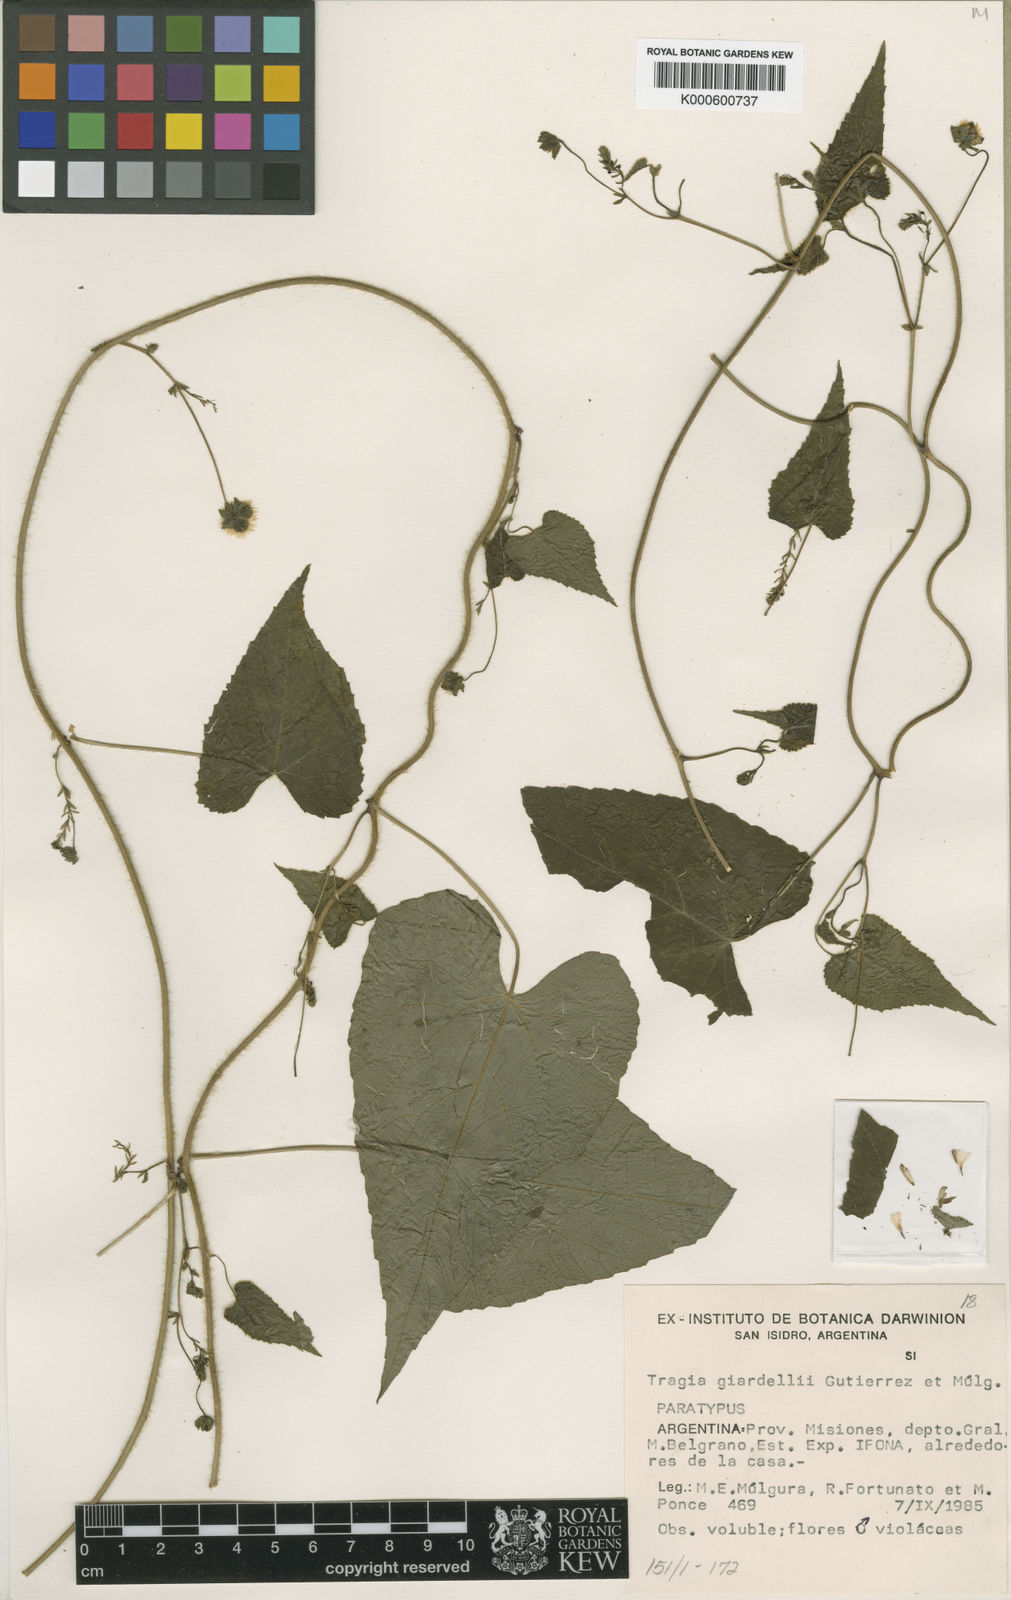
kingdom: Plantae
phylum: Tracheophyta
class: Magnoliopsida
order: Malpighiales
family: Euphorbiaceae
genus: Tragia
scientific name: Tragia
